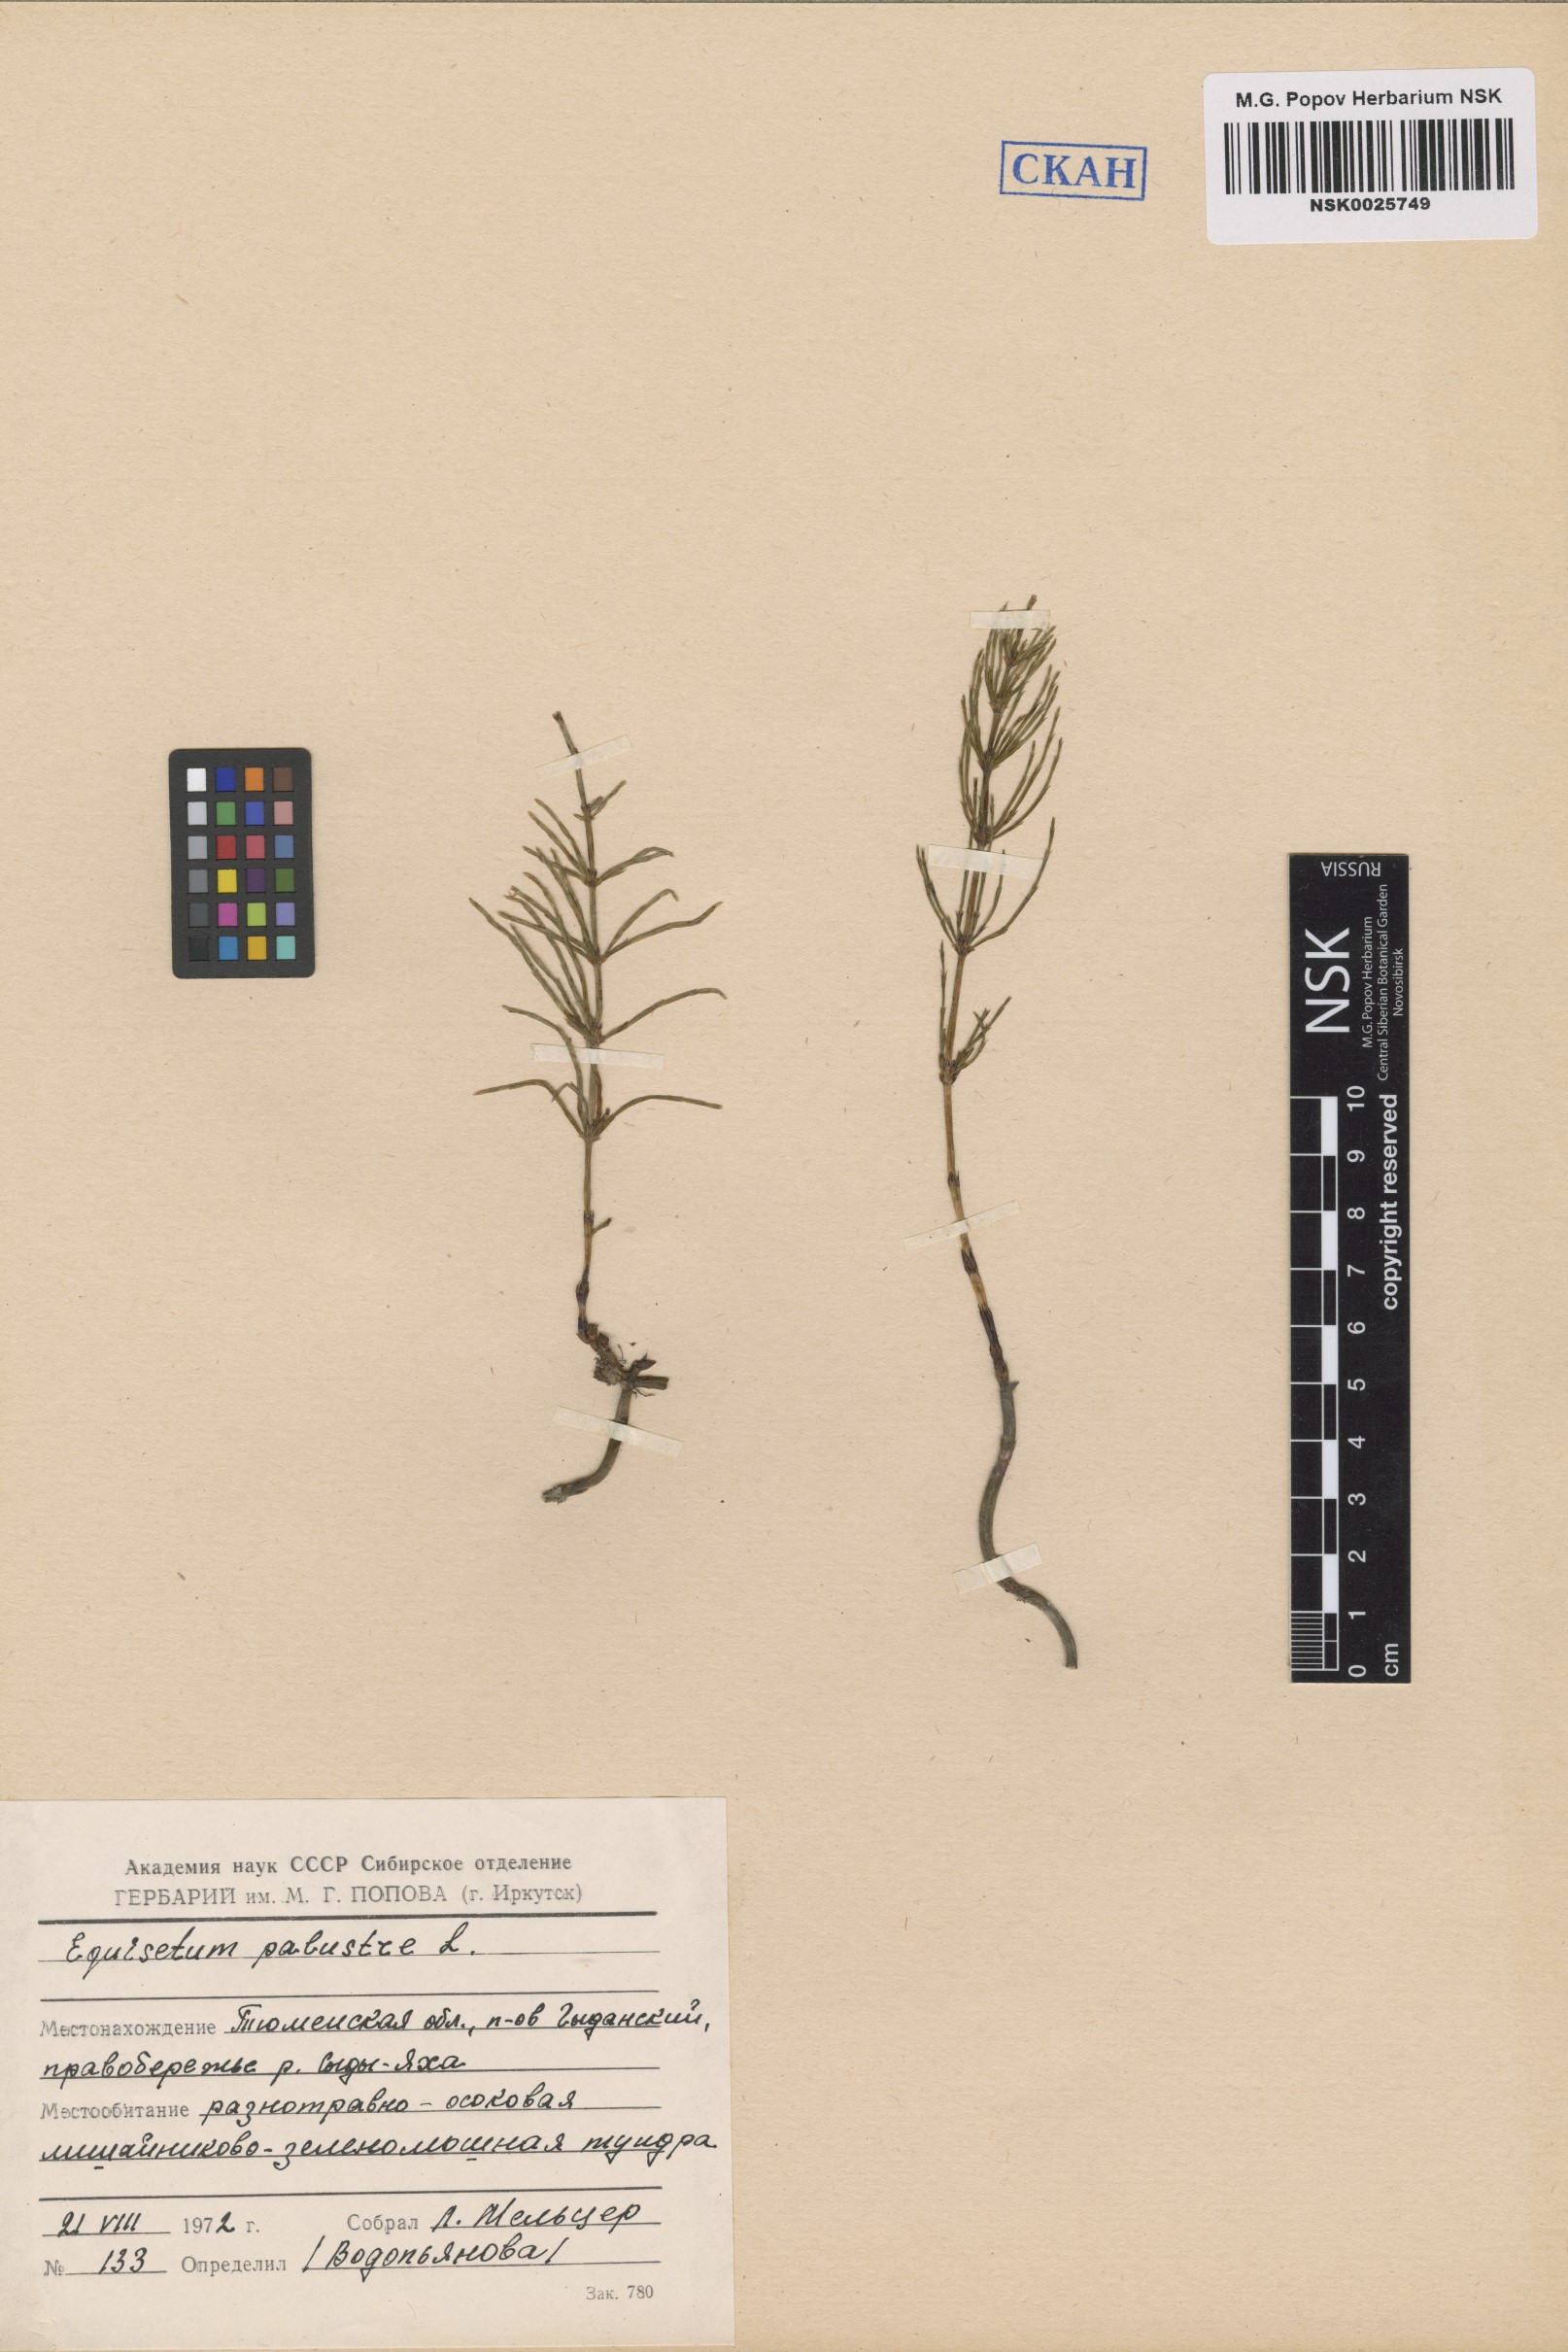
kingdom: Plantae
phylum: Tracheophyta
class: Polypodiopsida
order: Equisetales
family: Equisetaceae
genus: Equisetum
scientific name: Equisetum palustre
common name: Marsh horsetail
